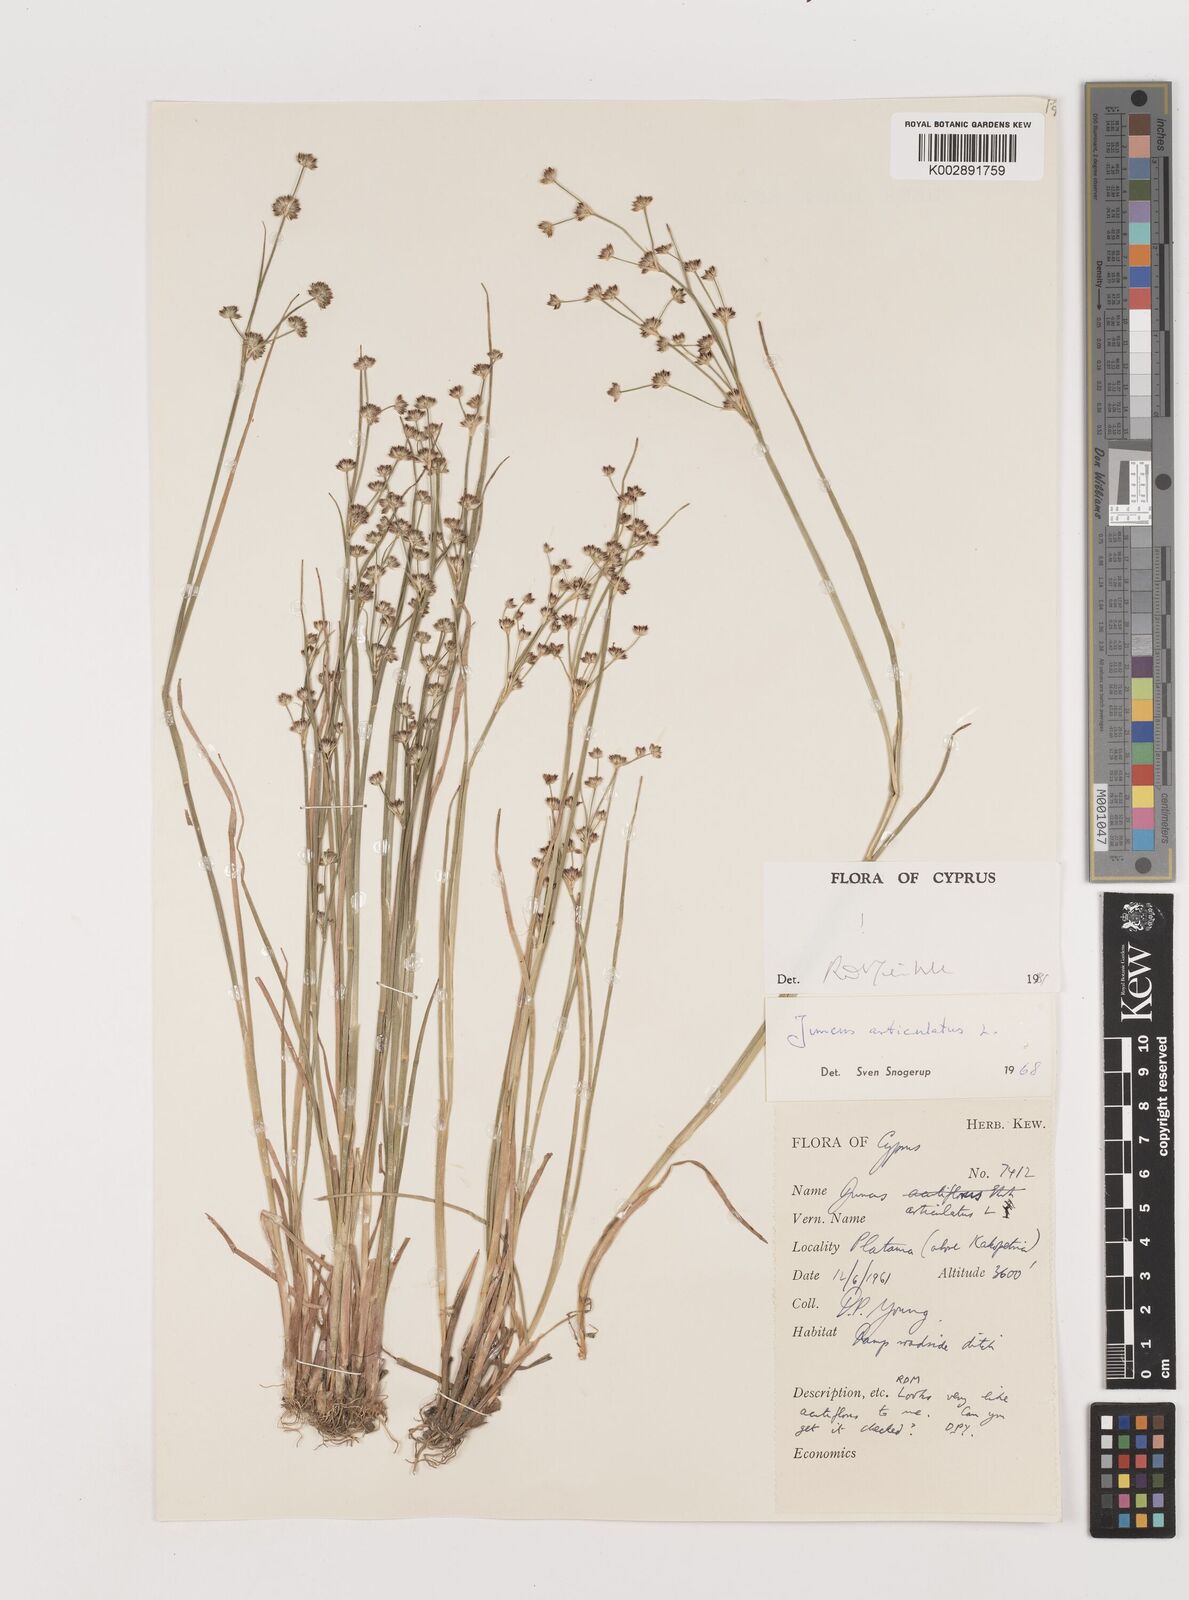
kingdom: Plantae
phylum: Tracheophyta
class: Liliopsida
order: Poales
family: Juncaceae
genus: Juncus
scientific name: Juncus articulatus
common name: Jointed rush
